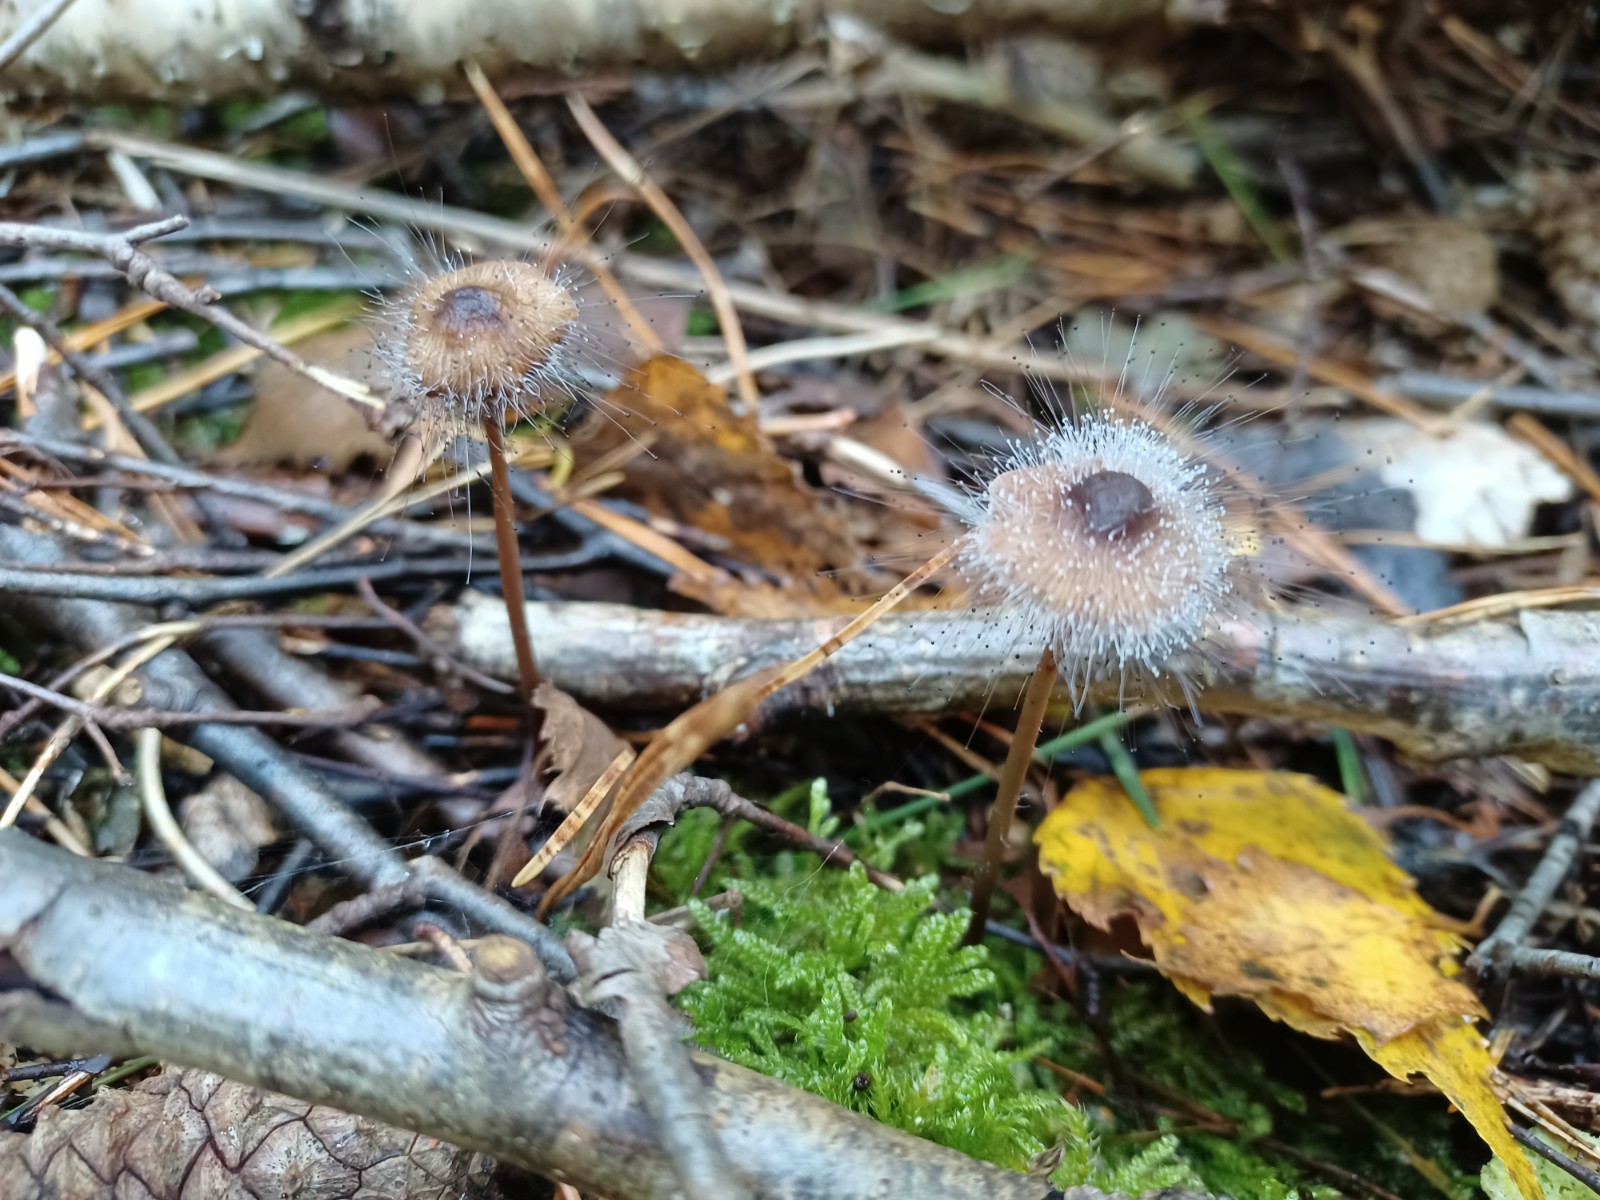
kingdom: Fungi
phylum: Mucoromycota
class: Mucoromycetes
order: Mucorales
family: Phycomycetaceae
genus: Spinellus
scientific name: Spinellus fusiger
